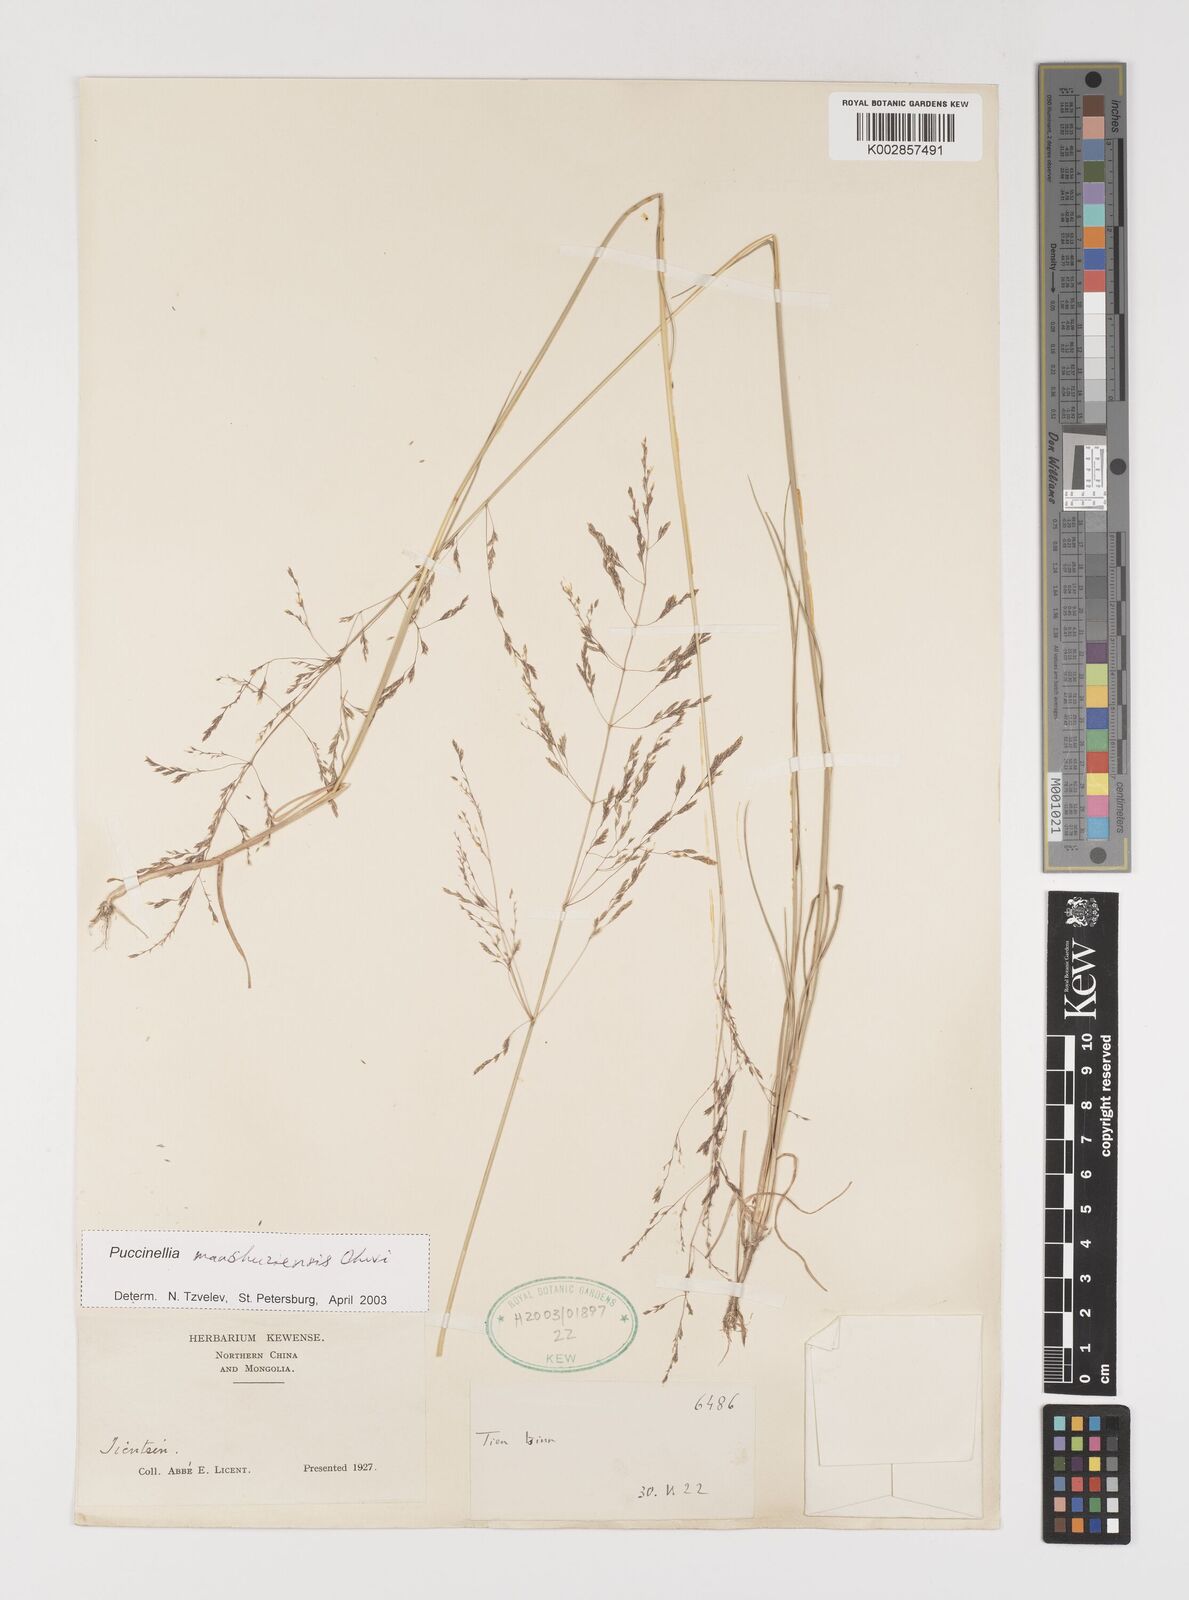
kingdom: Plantae
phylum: Tracheophyta
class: Liliopsida
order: Poales
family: Poaceae
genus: Puccinellia
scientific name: Puccinellia manchuriensis
